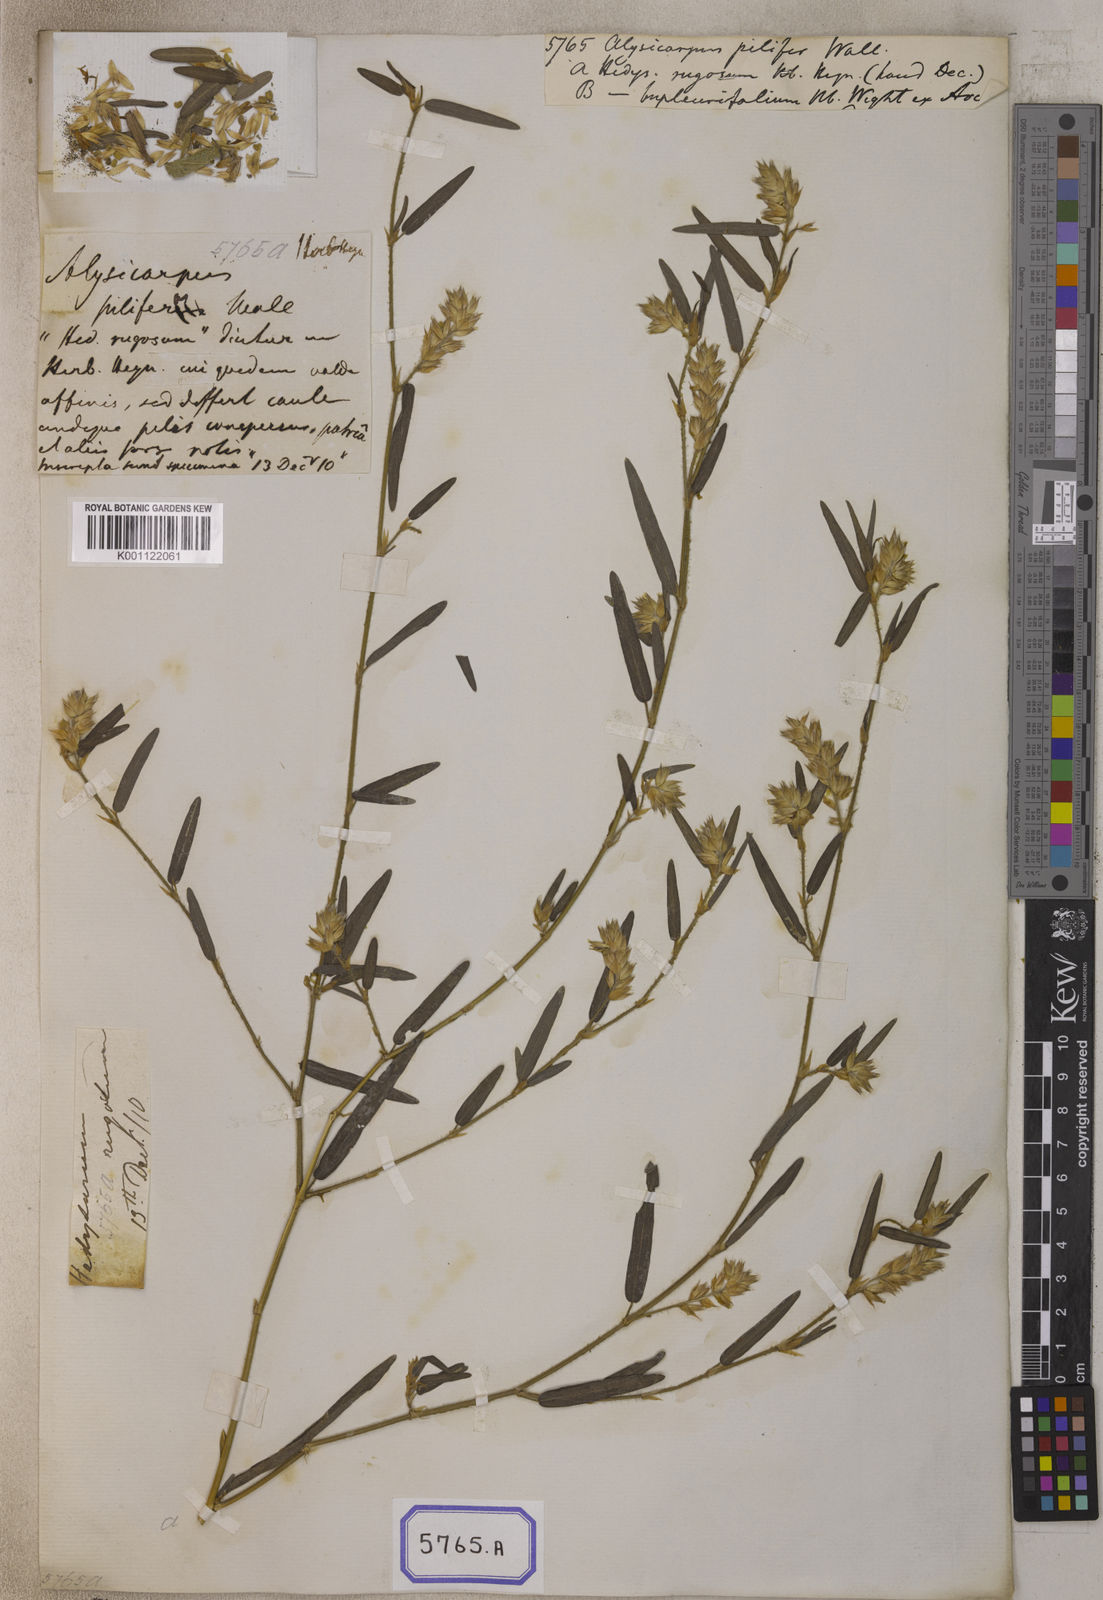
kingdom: Plantae
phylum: Tracheophyta
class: Magnoliopsida
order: Fabales
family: Fabaceae
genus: Alysicarpus
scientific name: Alysicarpus
